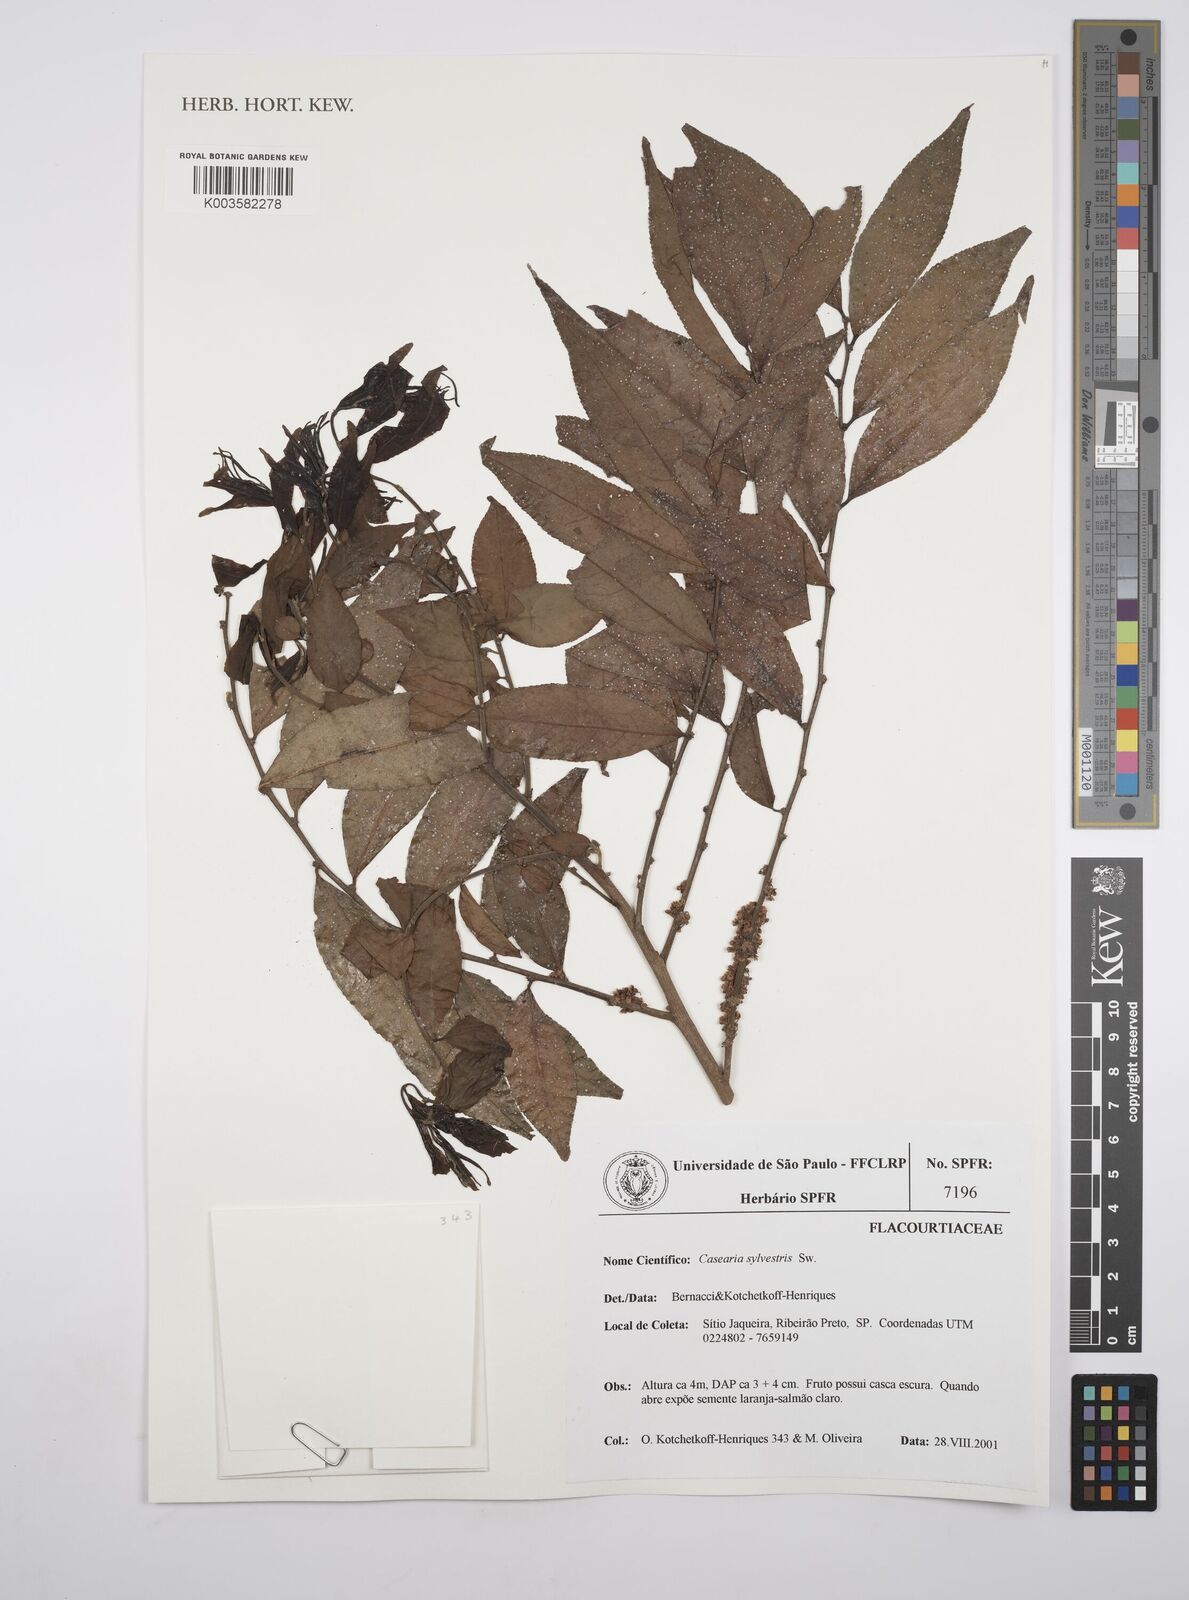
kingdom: Plantae
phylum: Tracheophyta
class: Magnoliopsida
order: Malpighiales
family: Salicaceae
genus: Casearia
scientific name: Casearia sylvestris
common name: Wild sage
